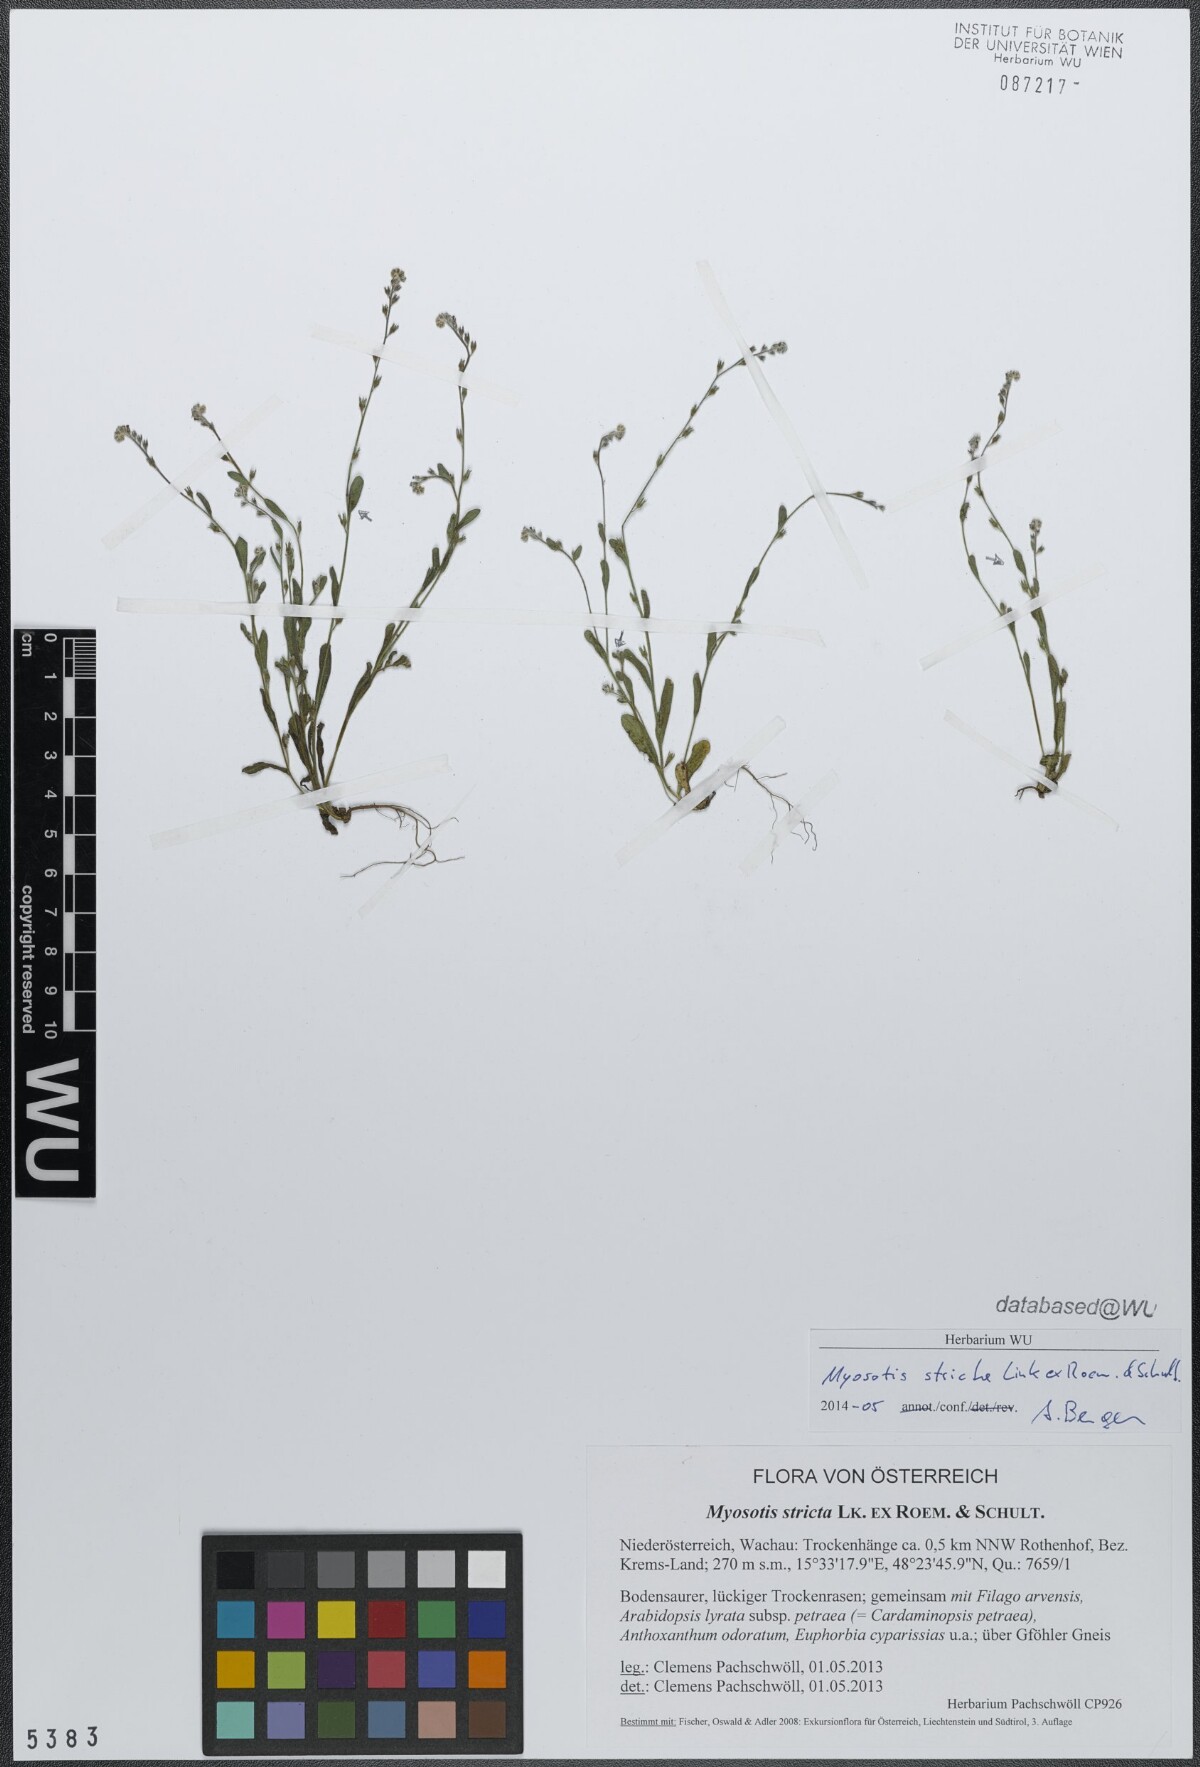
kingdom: Plantae
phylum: Tracheophyta
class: Magnoliopsida
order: Boraginales
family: Boraginaceae
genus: Myosotis
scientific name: Myosotis stricta
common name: Strict forget-me-not
